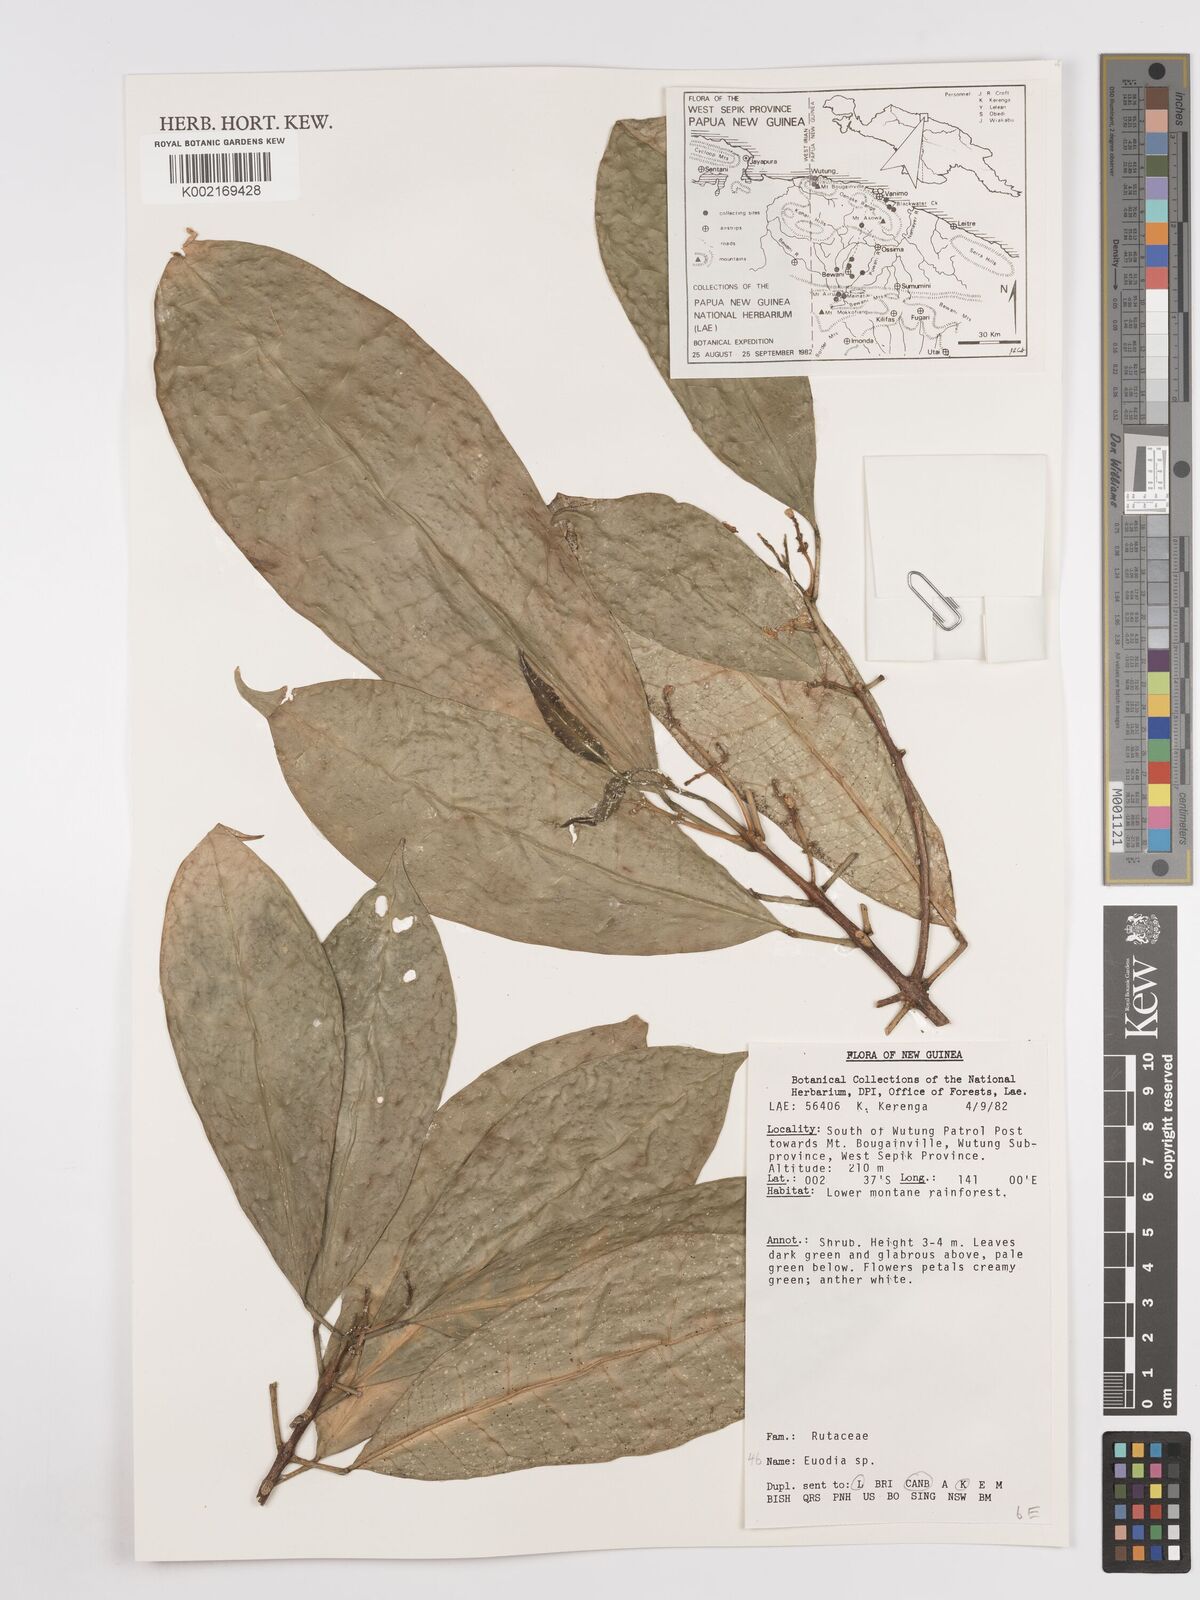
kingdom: Plantae
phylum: Tracheophyta
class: Magnoliopsida
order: Sapindales
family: Rutaceae
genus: Euodia
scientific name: Euodia
